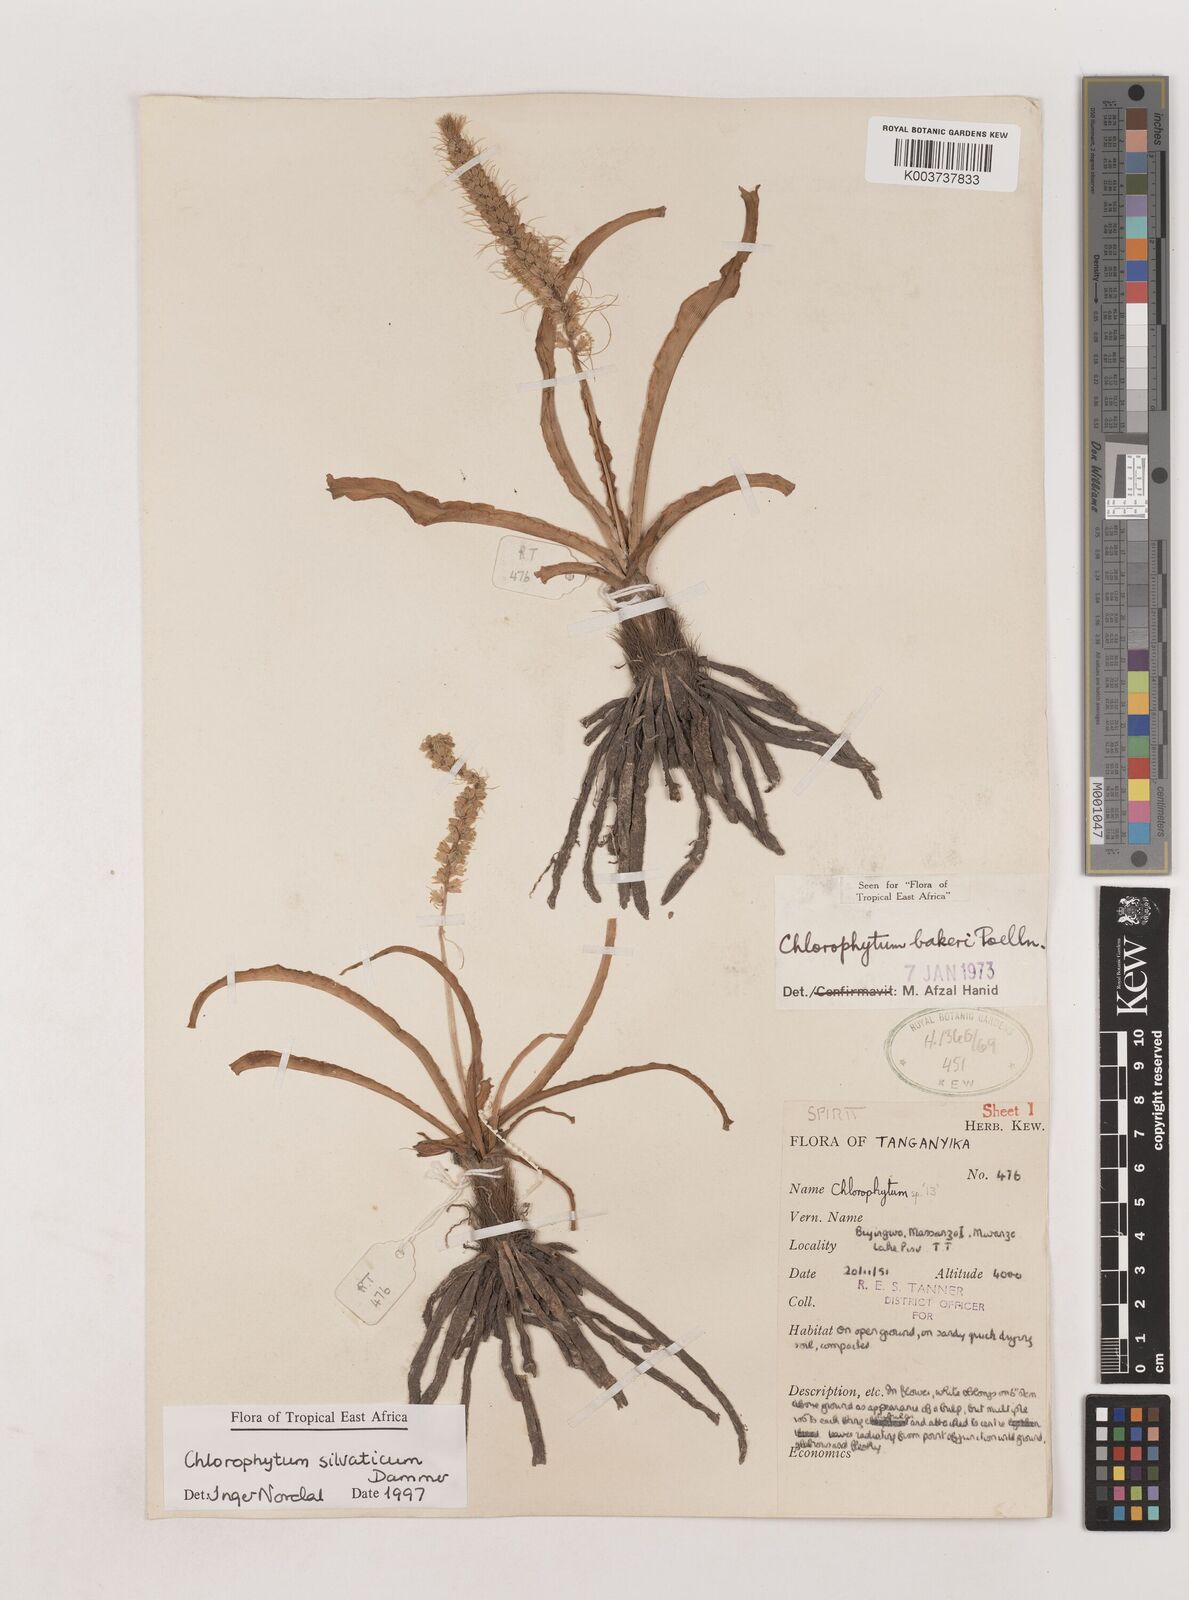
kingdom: Plantae
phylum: Tracheophyta
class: Liliopsida
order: Asparagales
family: Asparagaceae
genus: Chlorophytum
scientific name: Chlorophytum africanum
